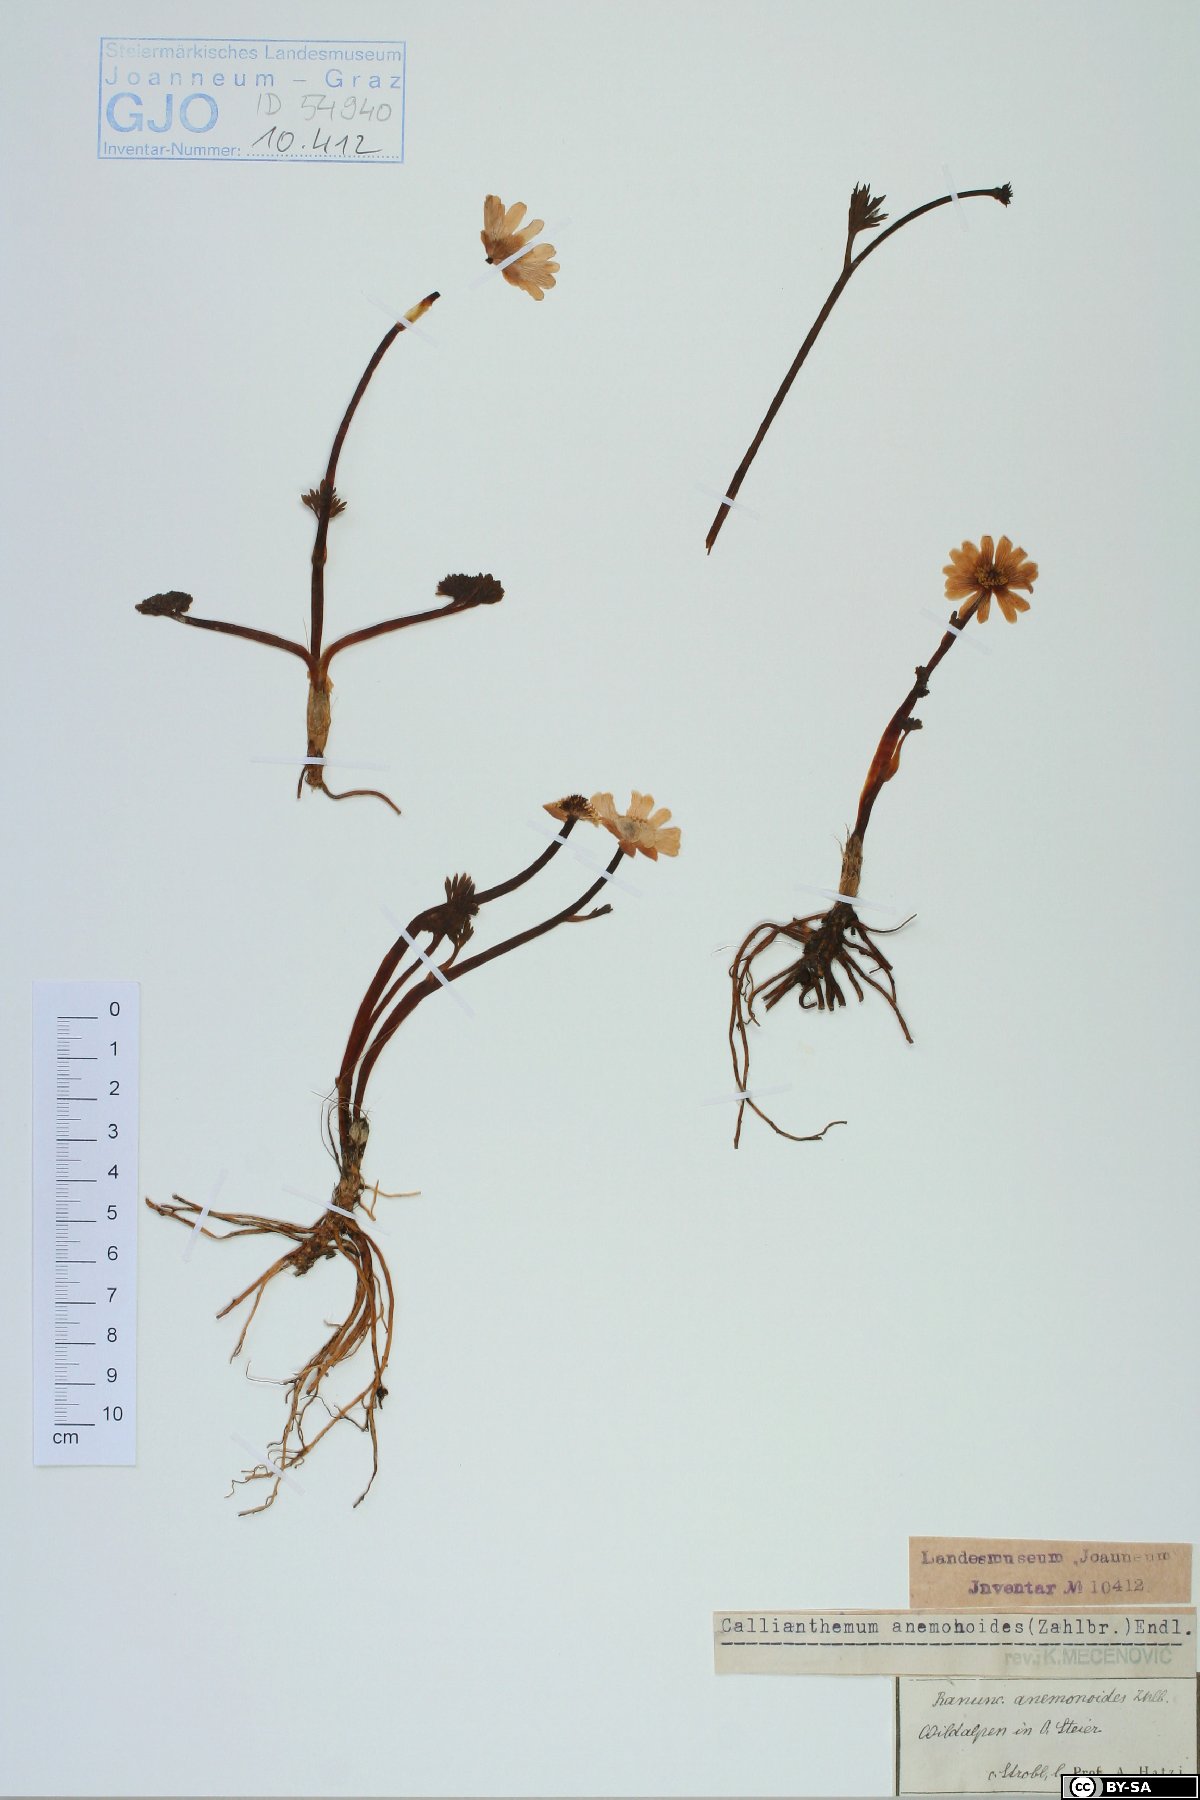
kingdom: Plantae
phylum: Tracheophyta
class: Magnoliopsida
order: Ranunculales
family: Ranunculaceae
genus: Callianthemum
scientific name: Callianthemum anemonoides
